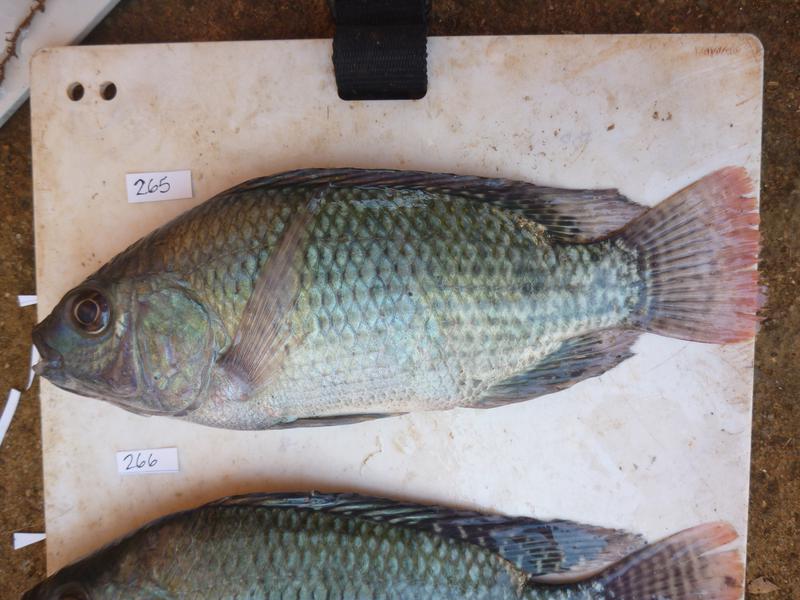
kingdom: Animalia
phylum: Chordata
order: Perciformes
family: Cichlidae
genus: Oreochromis
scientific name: Oreochromis niloticus
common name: Nile tilapia
